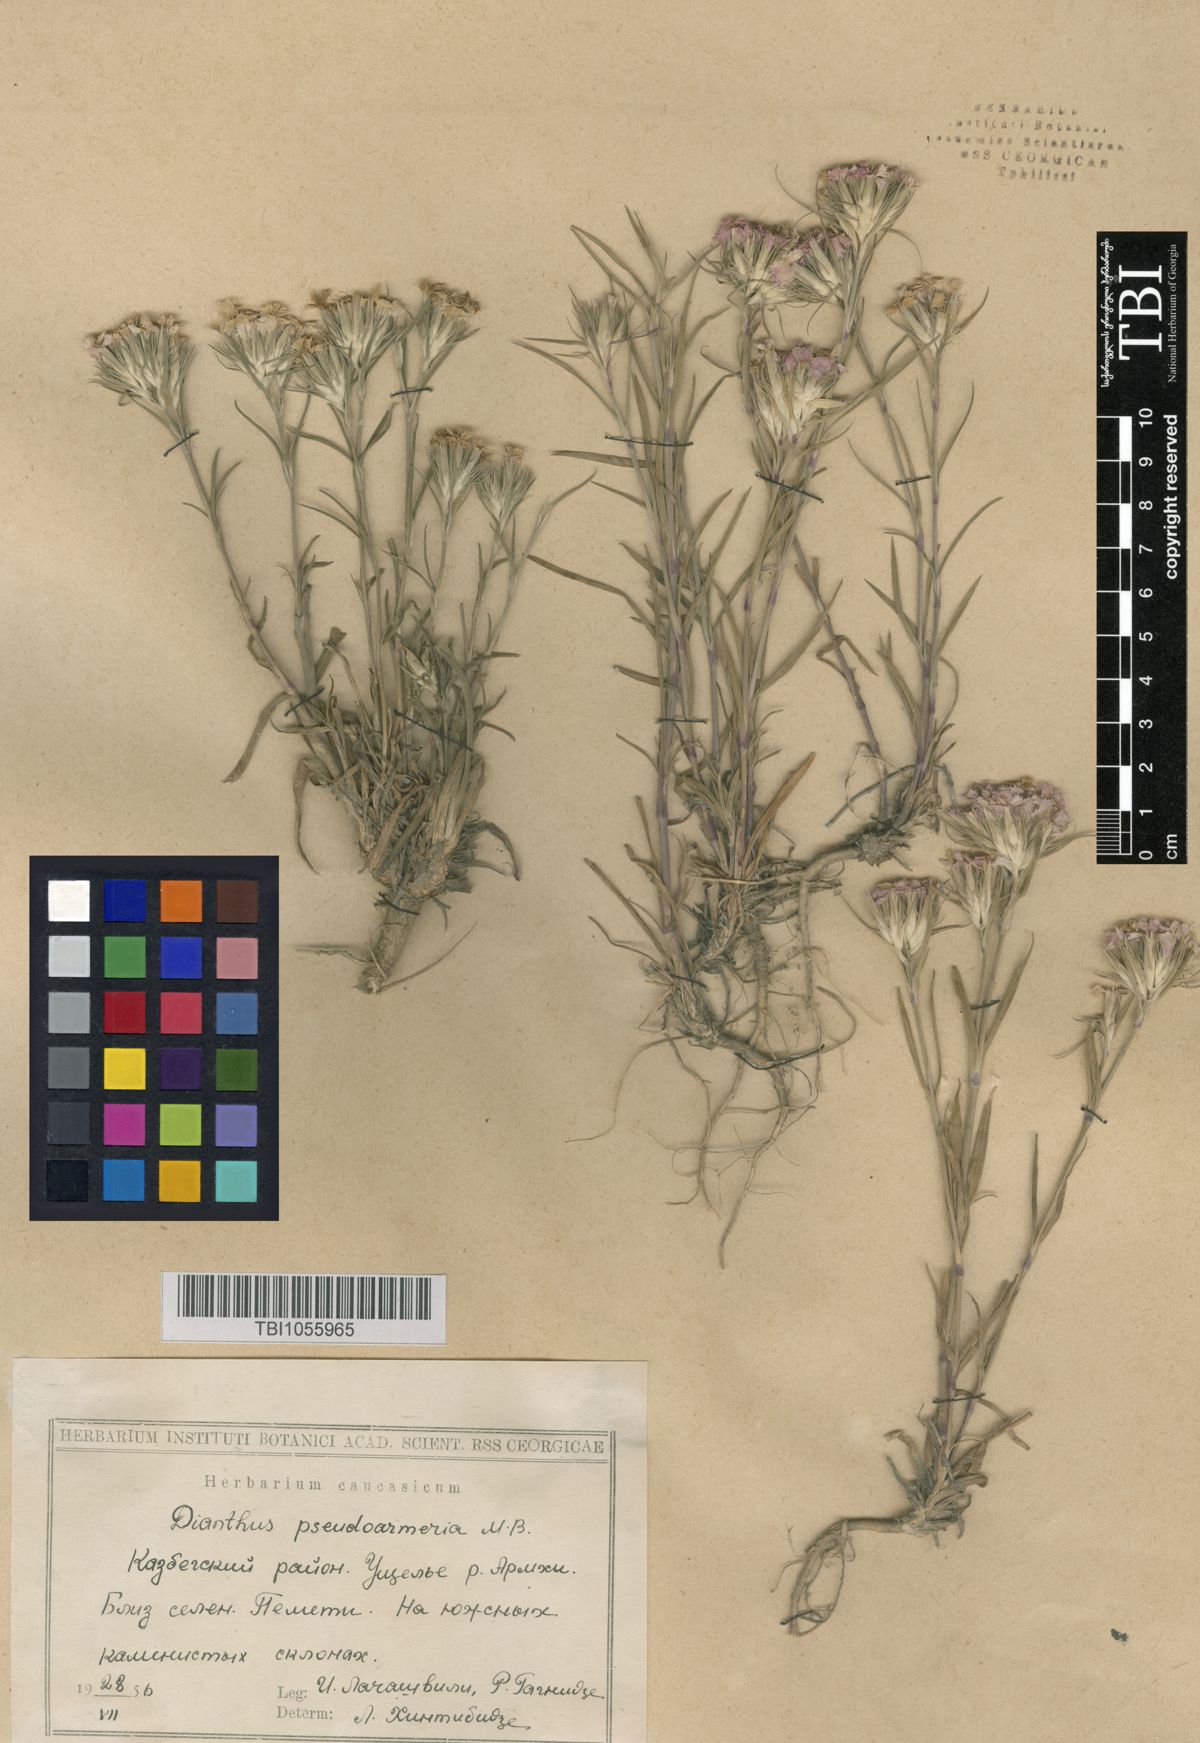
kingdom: Plantae
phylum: Tracheophyta
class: Magnoliopsida
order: Caryophyllales
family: Caryophyllaceae
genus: Dianthus
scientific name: Dianthus pseudarmeria
